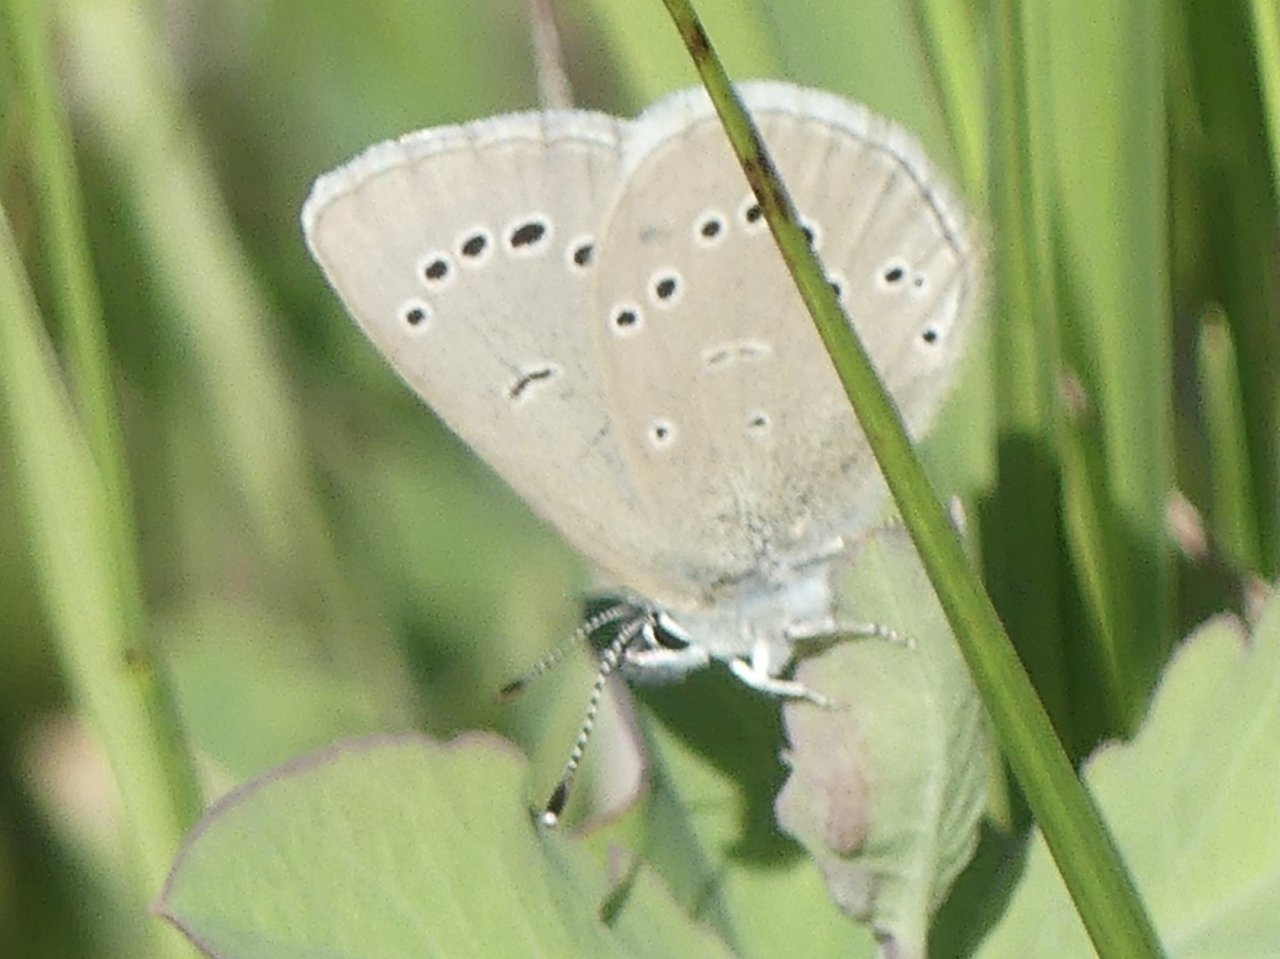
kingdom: Animalia
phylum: Arthropoda
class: Insecta
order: Lepidoptera
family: Lycaenidae
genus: Glaucopsyche
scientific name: Glaucopsyche lygdamus
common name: Silvery Blue
